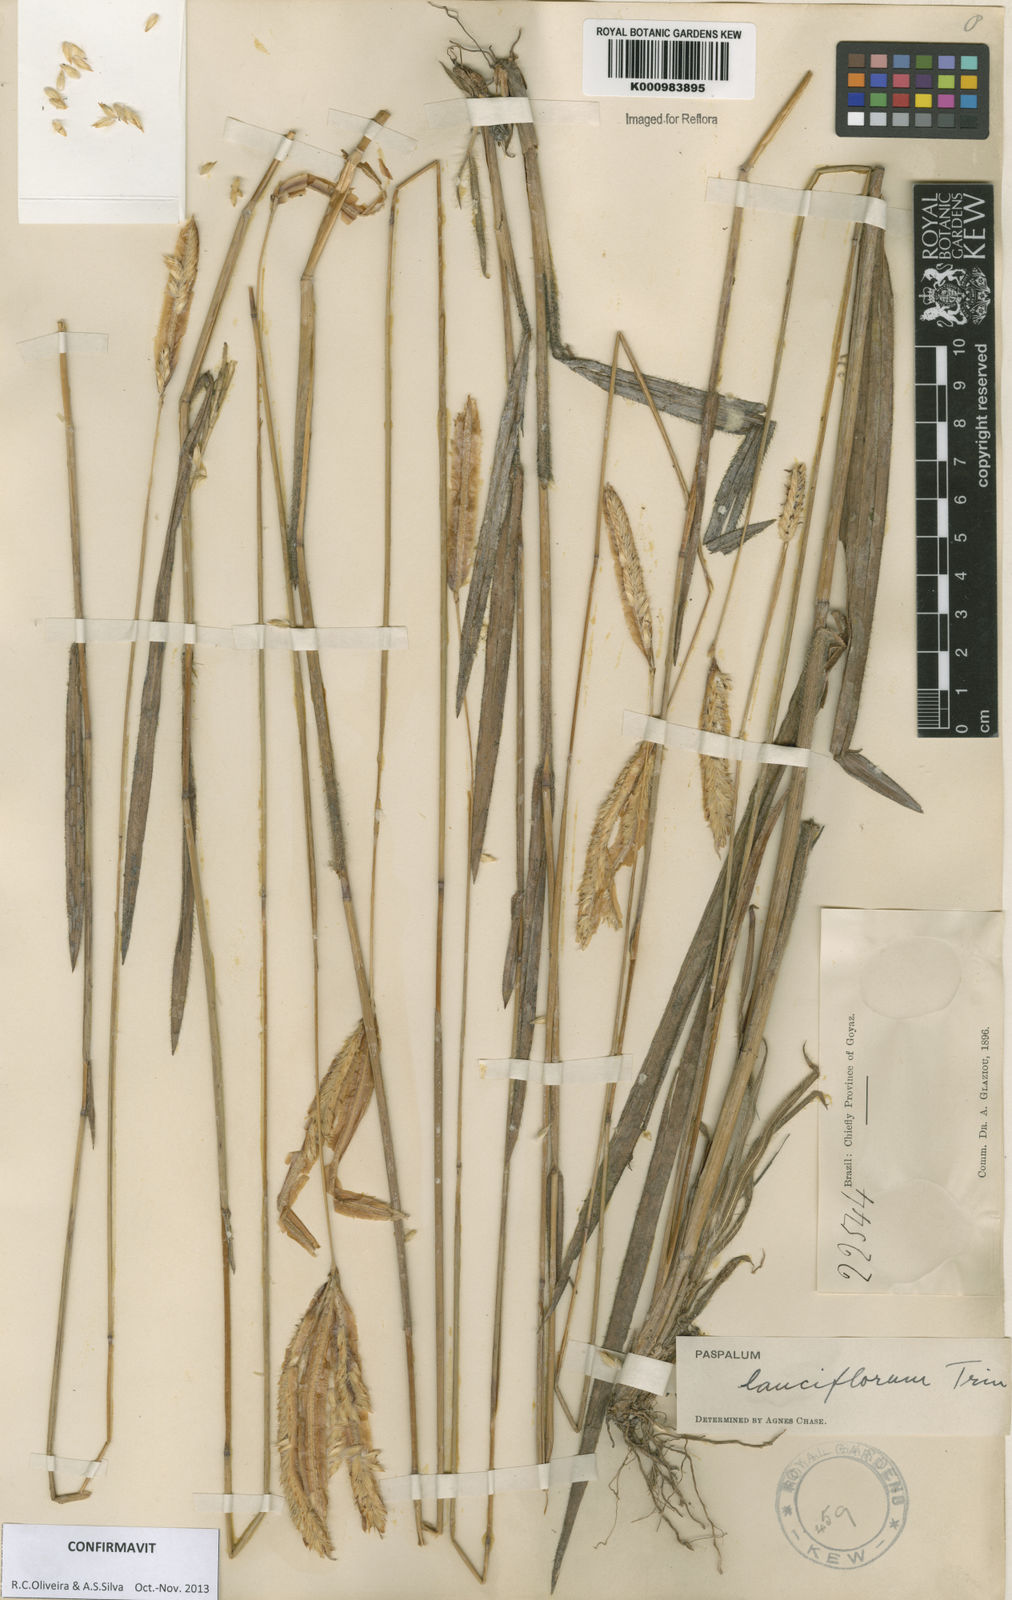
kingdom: Plantae
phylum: Tracheophyta
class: Liliopsida
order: Poales
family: Poaceae
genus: Paspalum
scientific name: Paspalum
